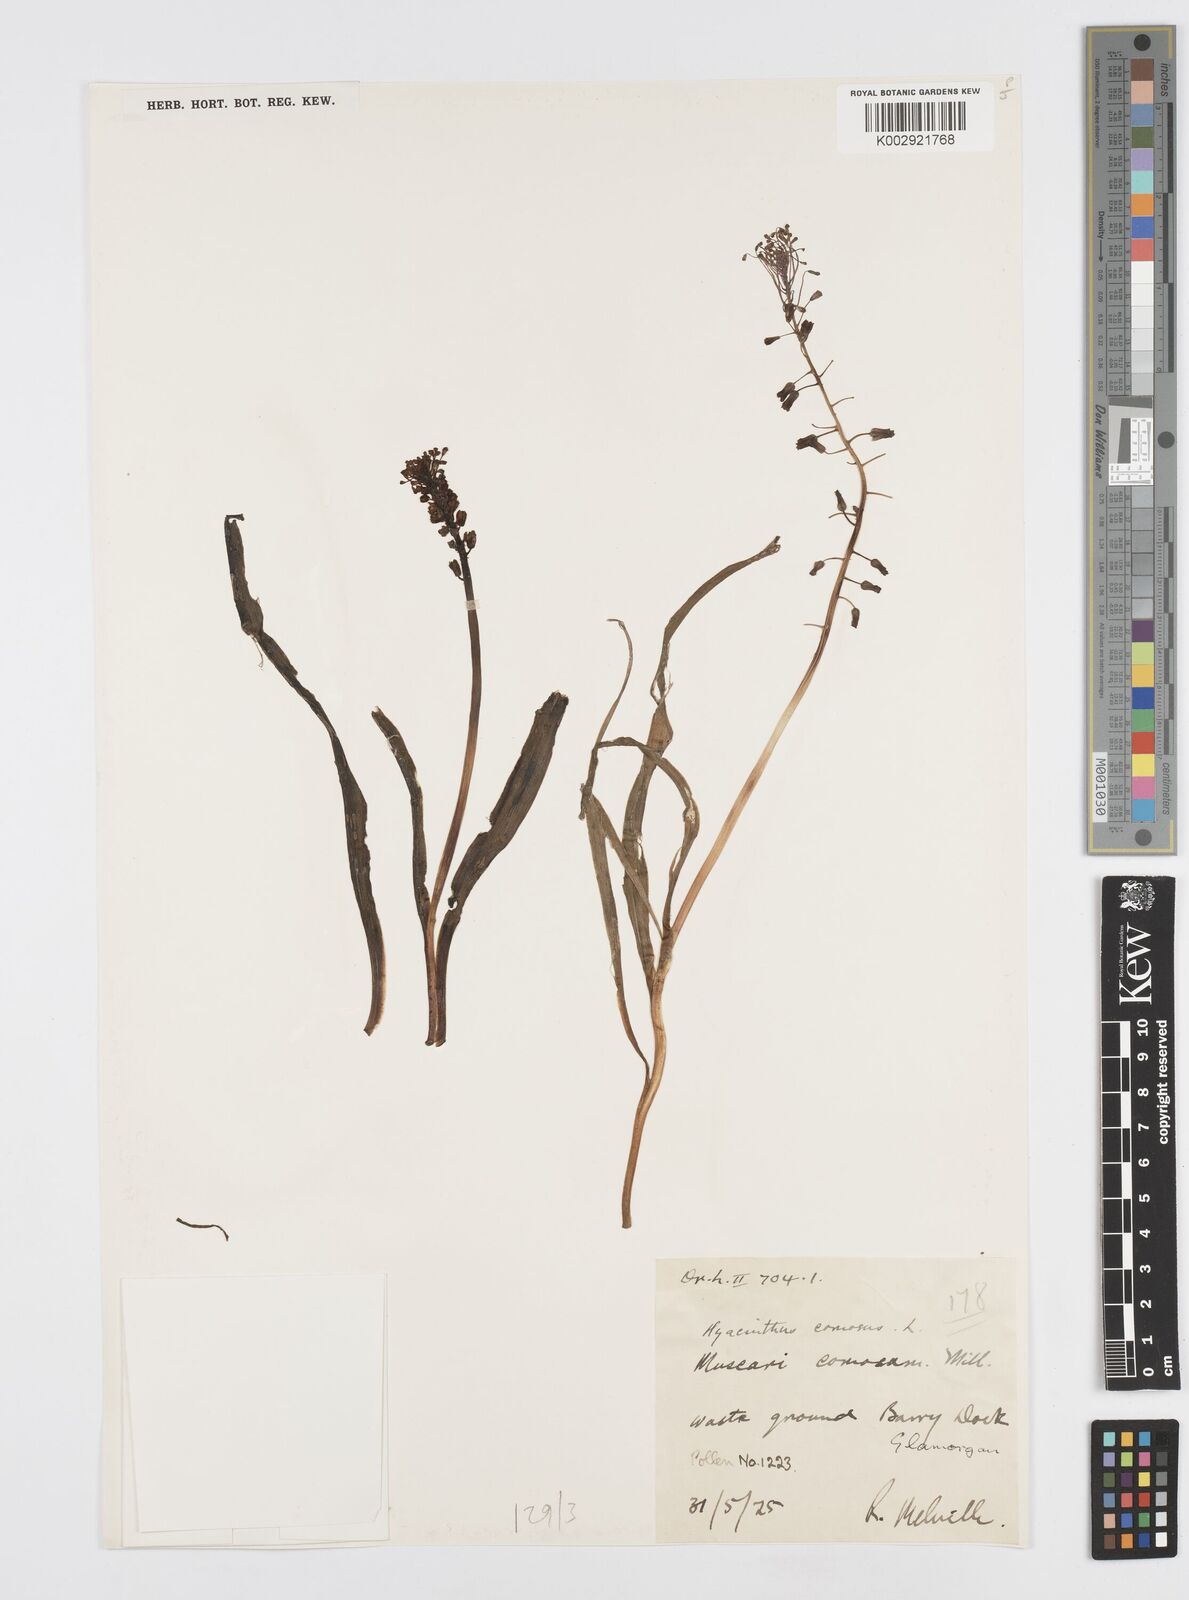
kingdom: Plantae
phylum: Tracheophyta
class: Liliopsida
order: Asparagales
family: Asparagaceae
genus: Muscari
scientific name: Muscari comosum
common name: Tassel hyacinth
